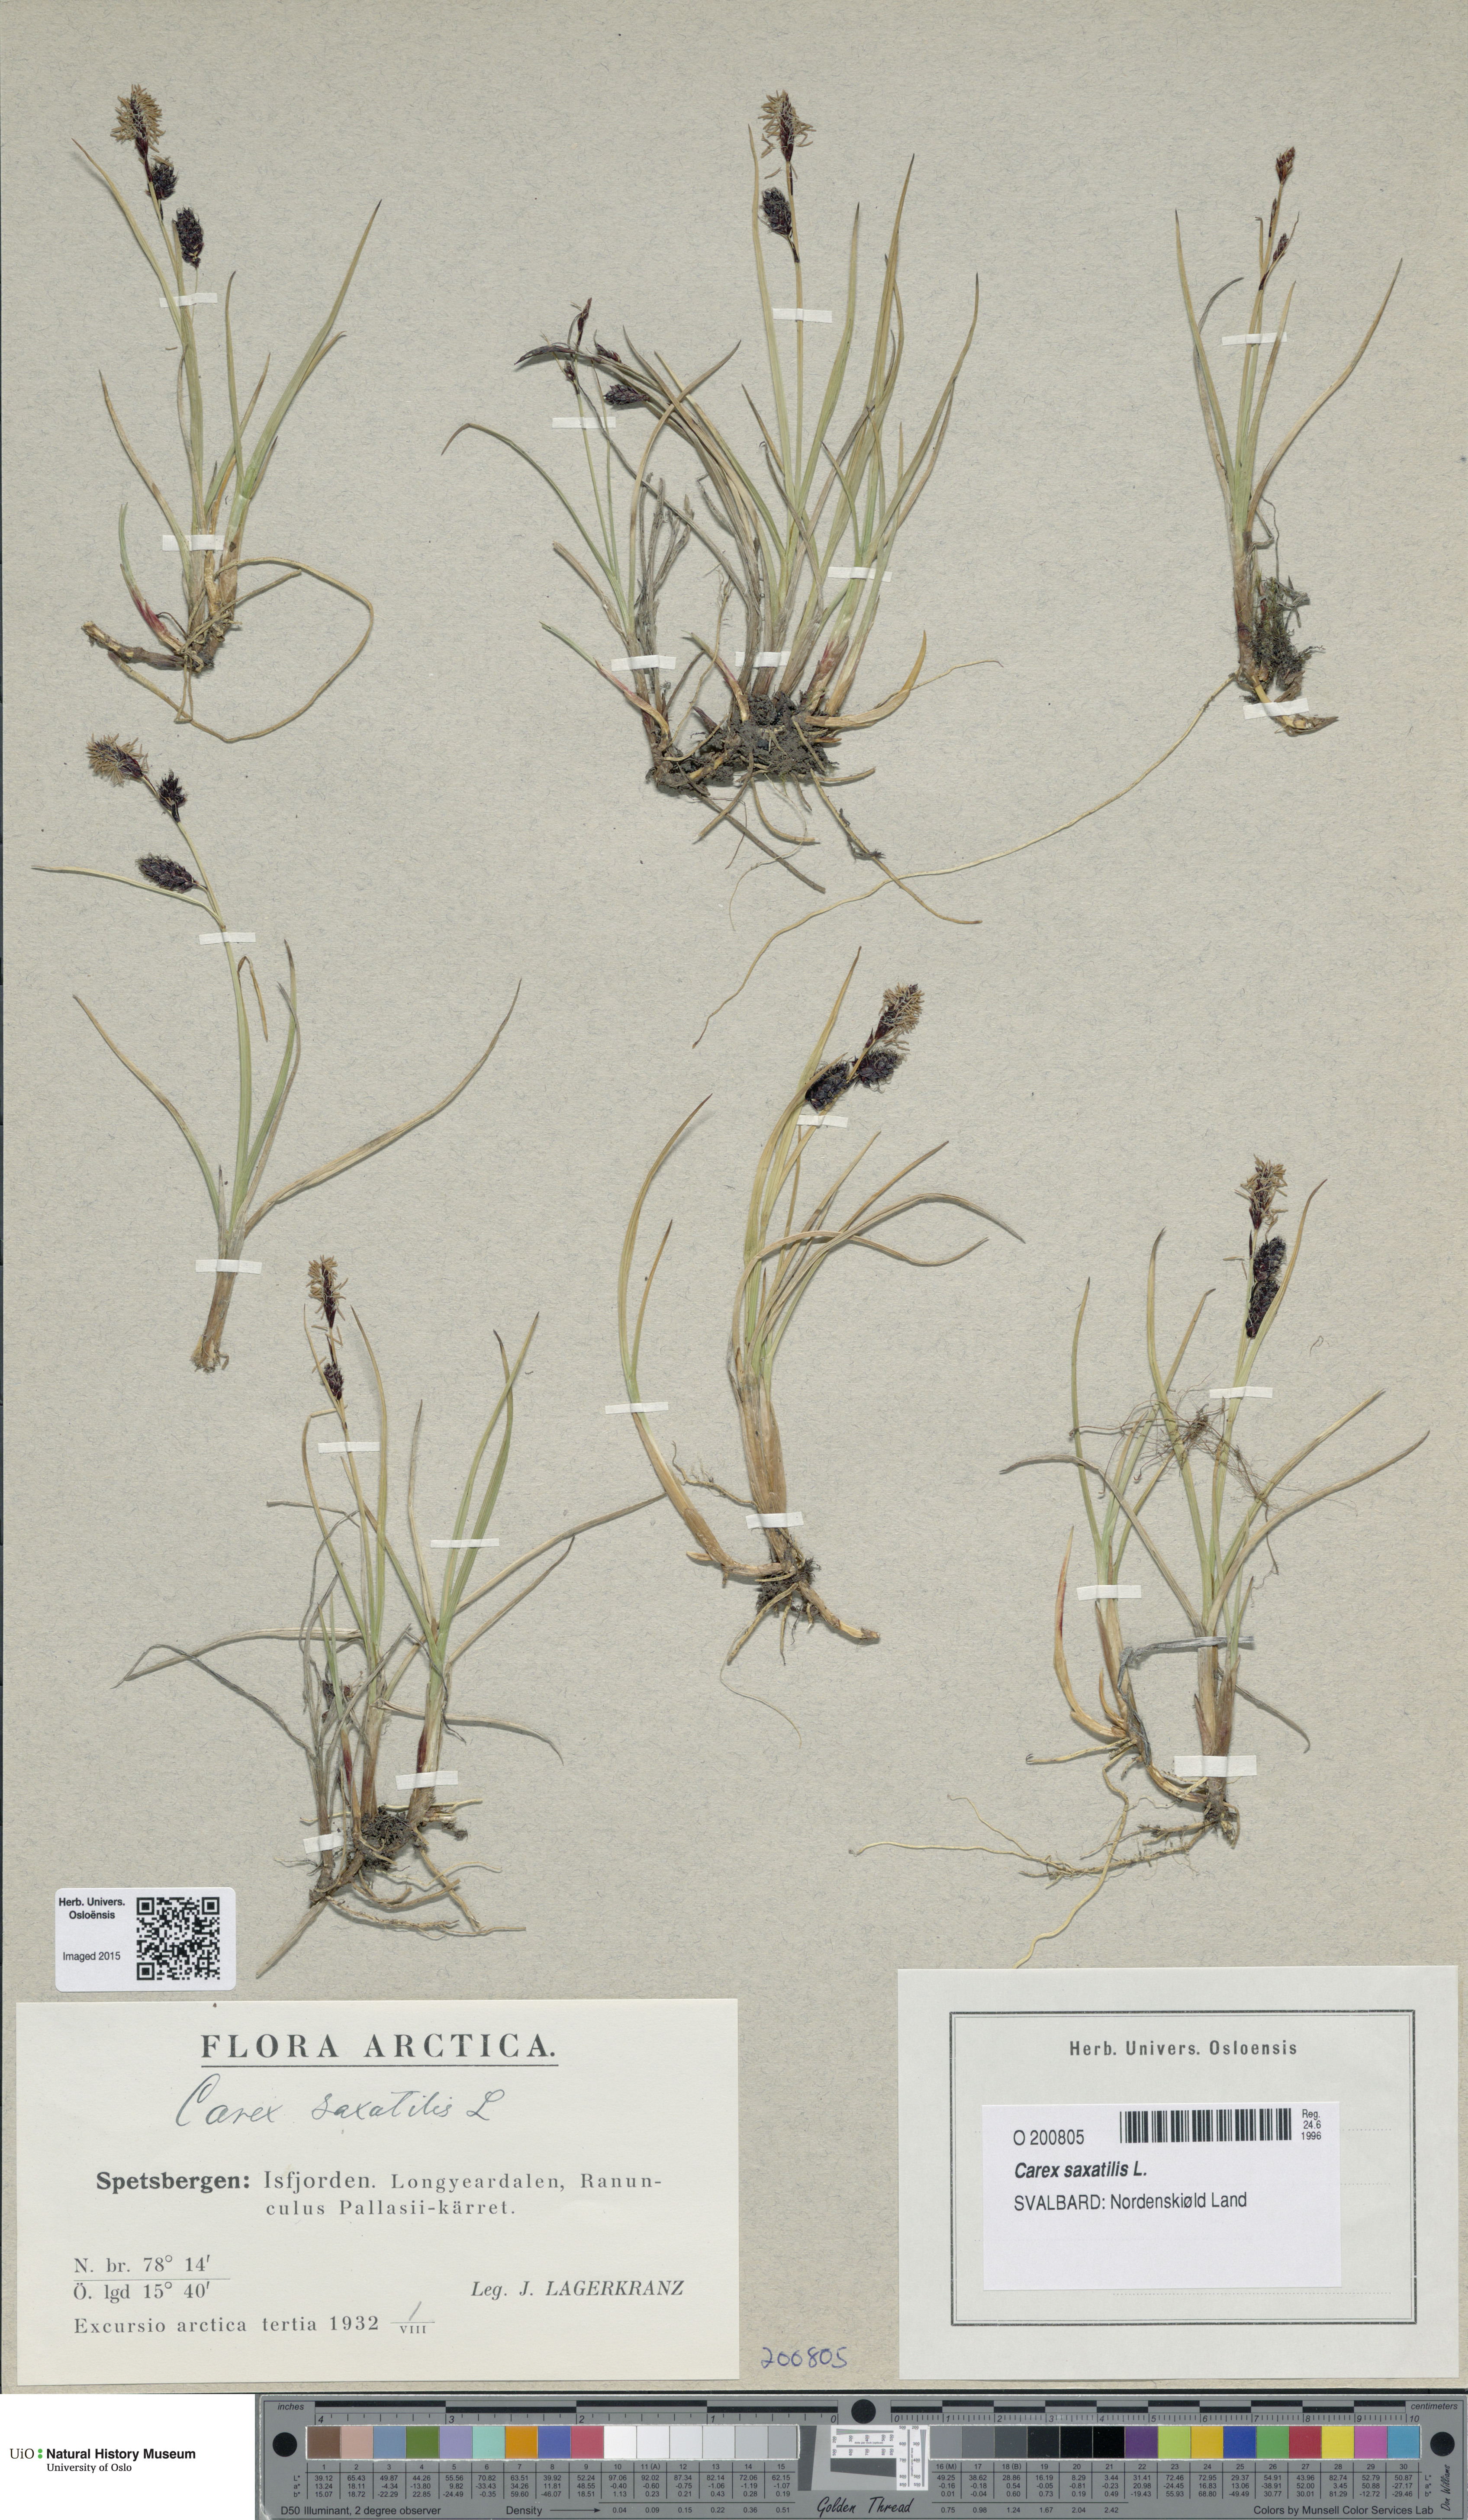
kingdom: Plantae
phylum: Tracheophyta
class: Liliopsida
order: Poales
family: Cyperaceae
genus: Carex
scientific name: Carex saxatilis
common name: Russet sedge
